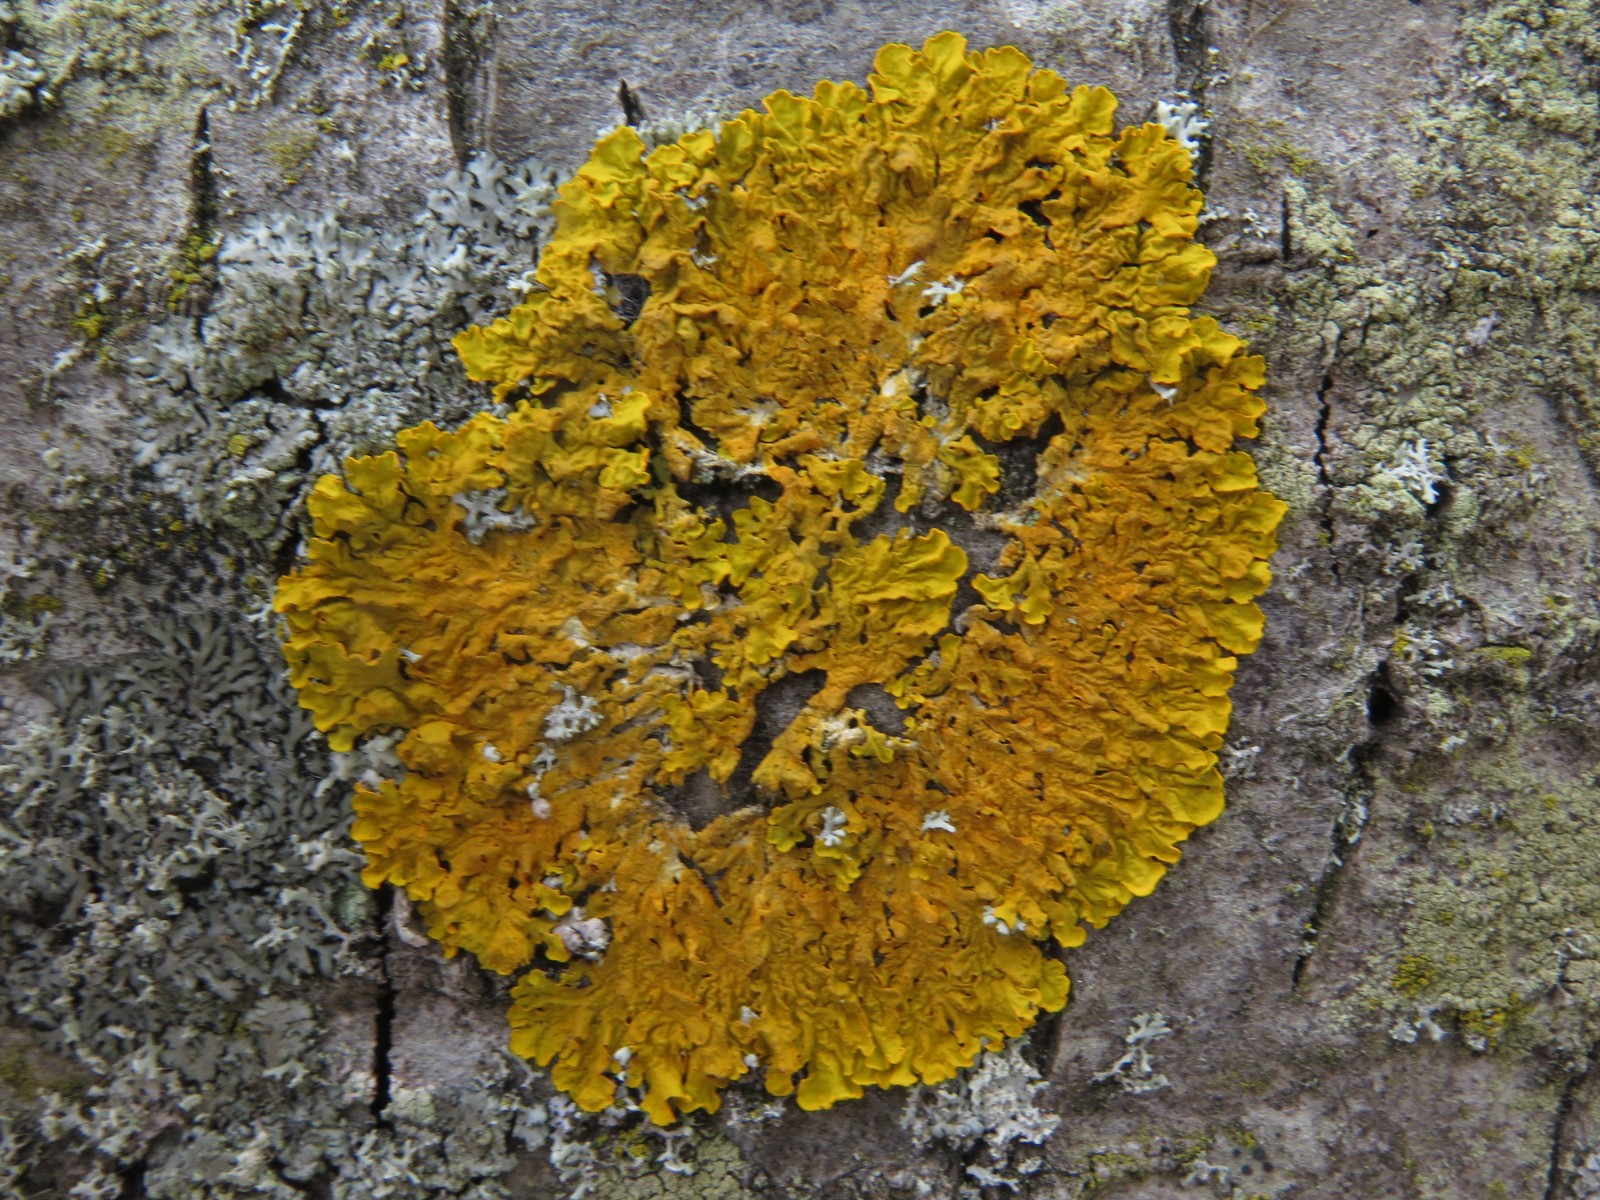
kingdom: Fungi
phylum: Ascomycota
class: Lecanoromycetes
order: Teloschistales
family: Teloschistaceae
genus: Xanthoria
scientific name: Xanthoria parietina
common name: almindelig væggelav
